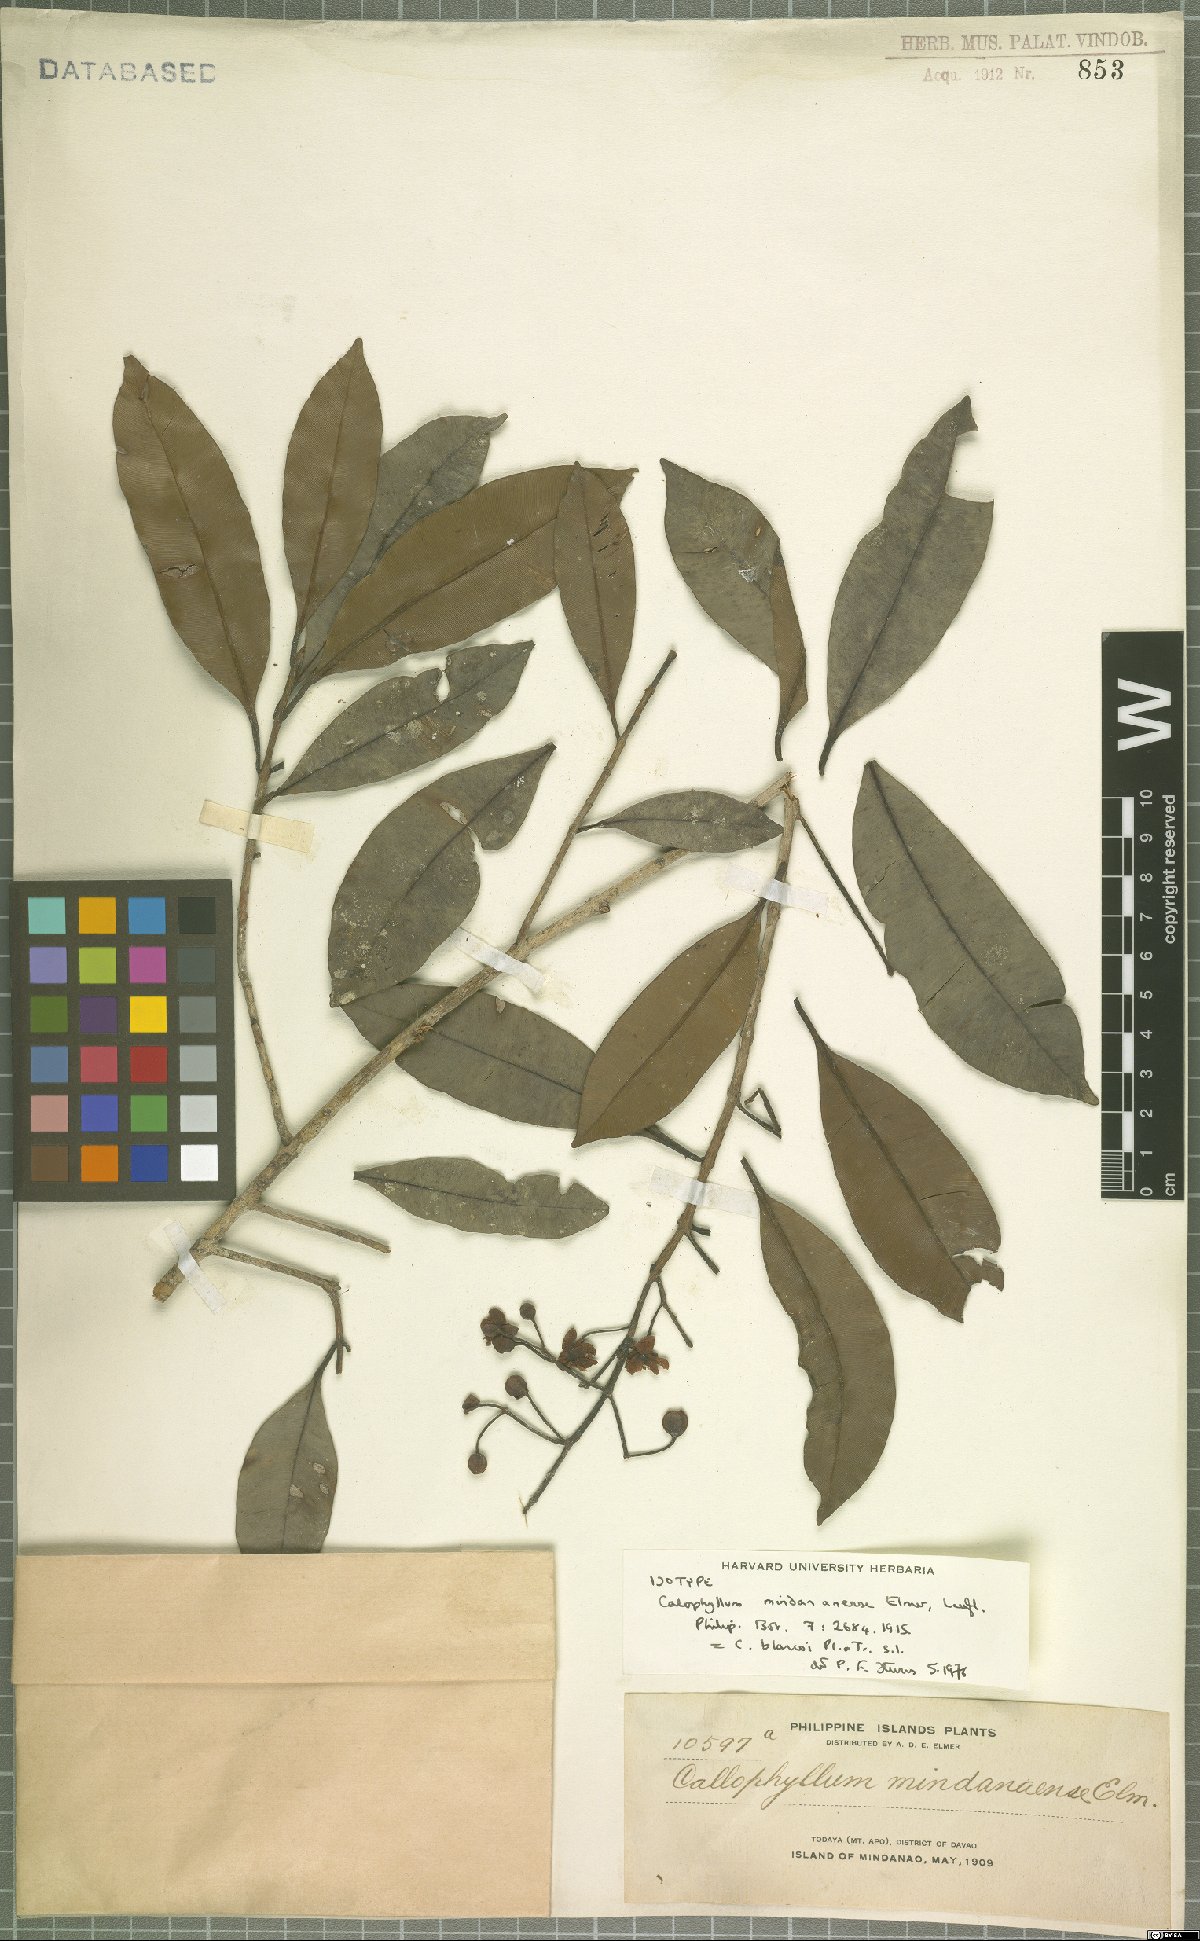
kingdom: Plantae
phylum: Tracheophyta
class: Magnoliopsida
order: Malpighiales
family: Calophyllaceae
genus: Calophyllum
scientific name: Calophyllum blancoi
